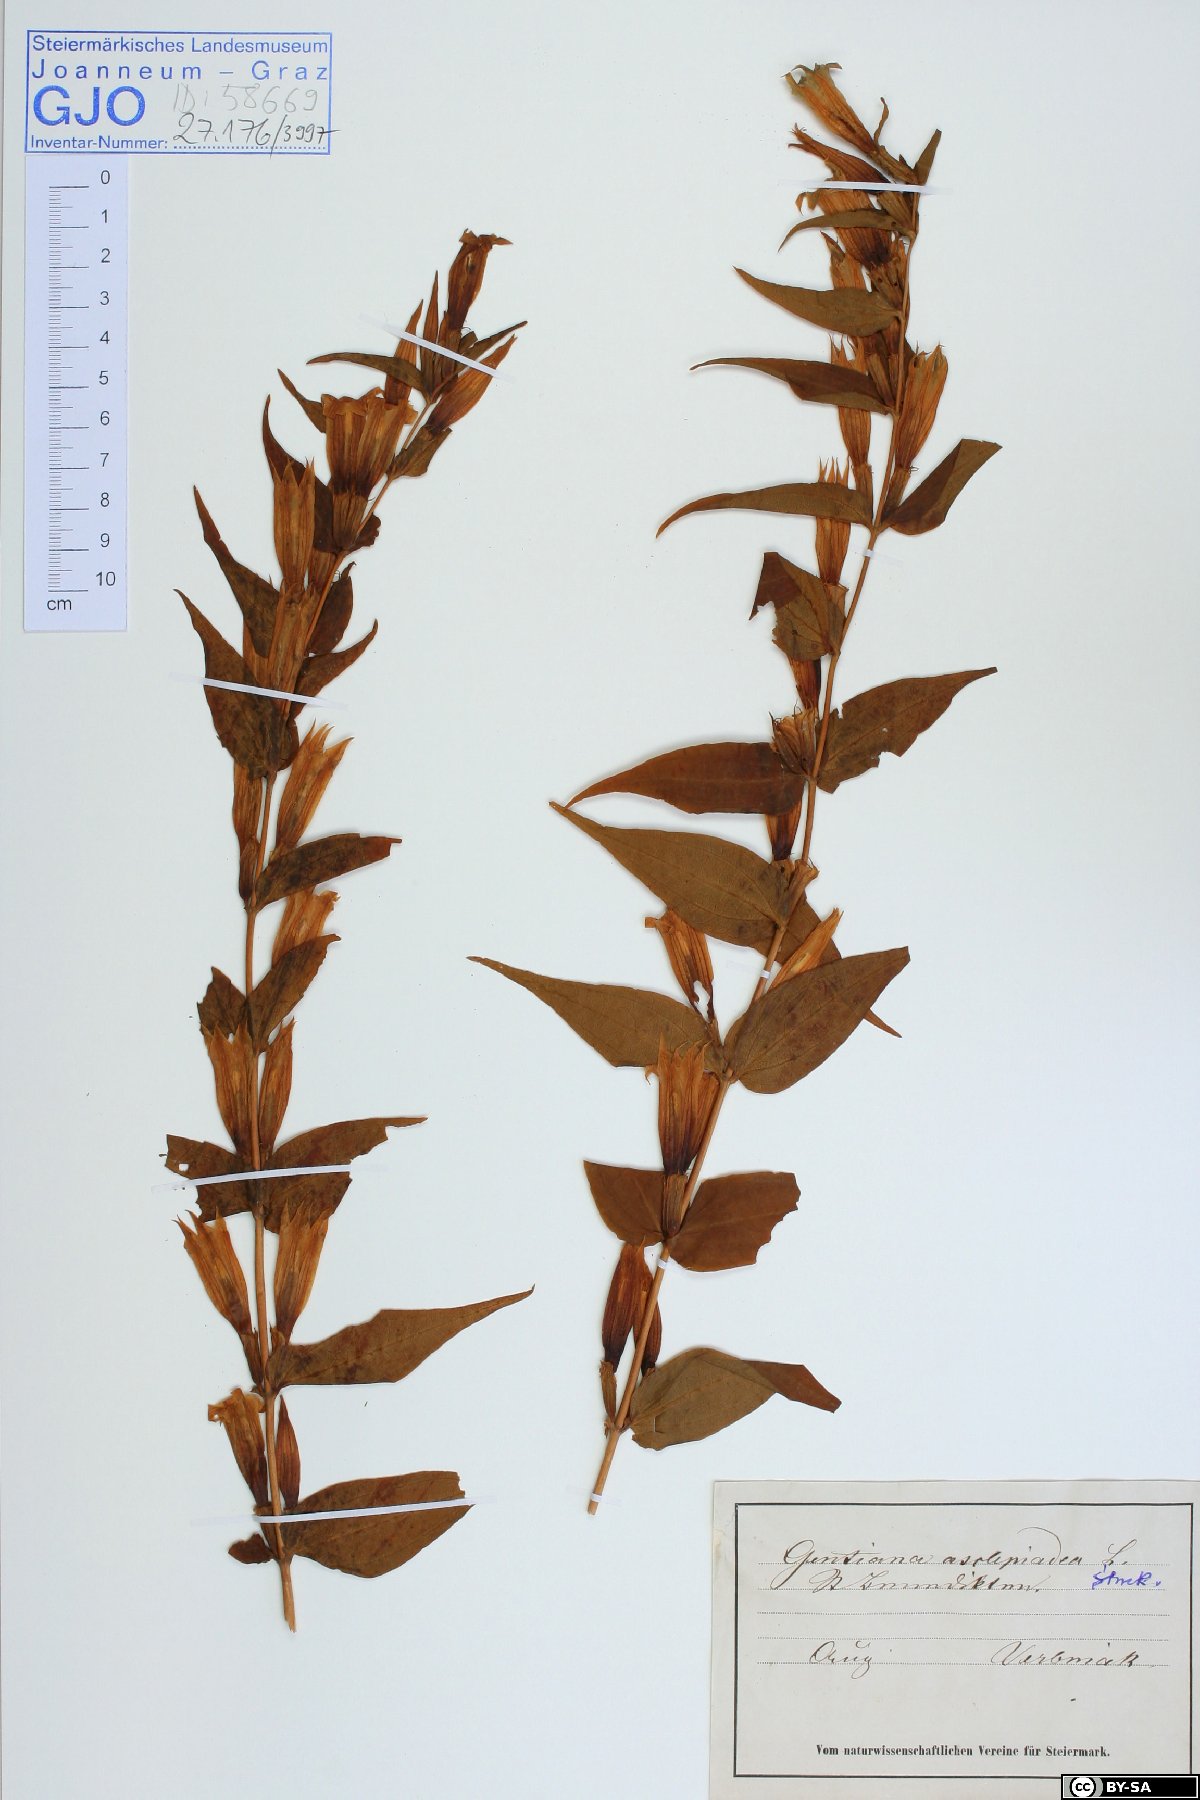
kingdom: Plantae
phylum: Tracheophyta
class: Magnoliopsida
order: Gentianales
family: Gentianaceae
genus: Gentiana
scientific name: Gentiana asclepiadea
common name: Willow gentian
